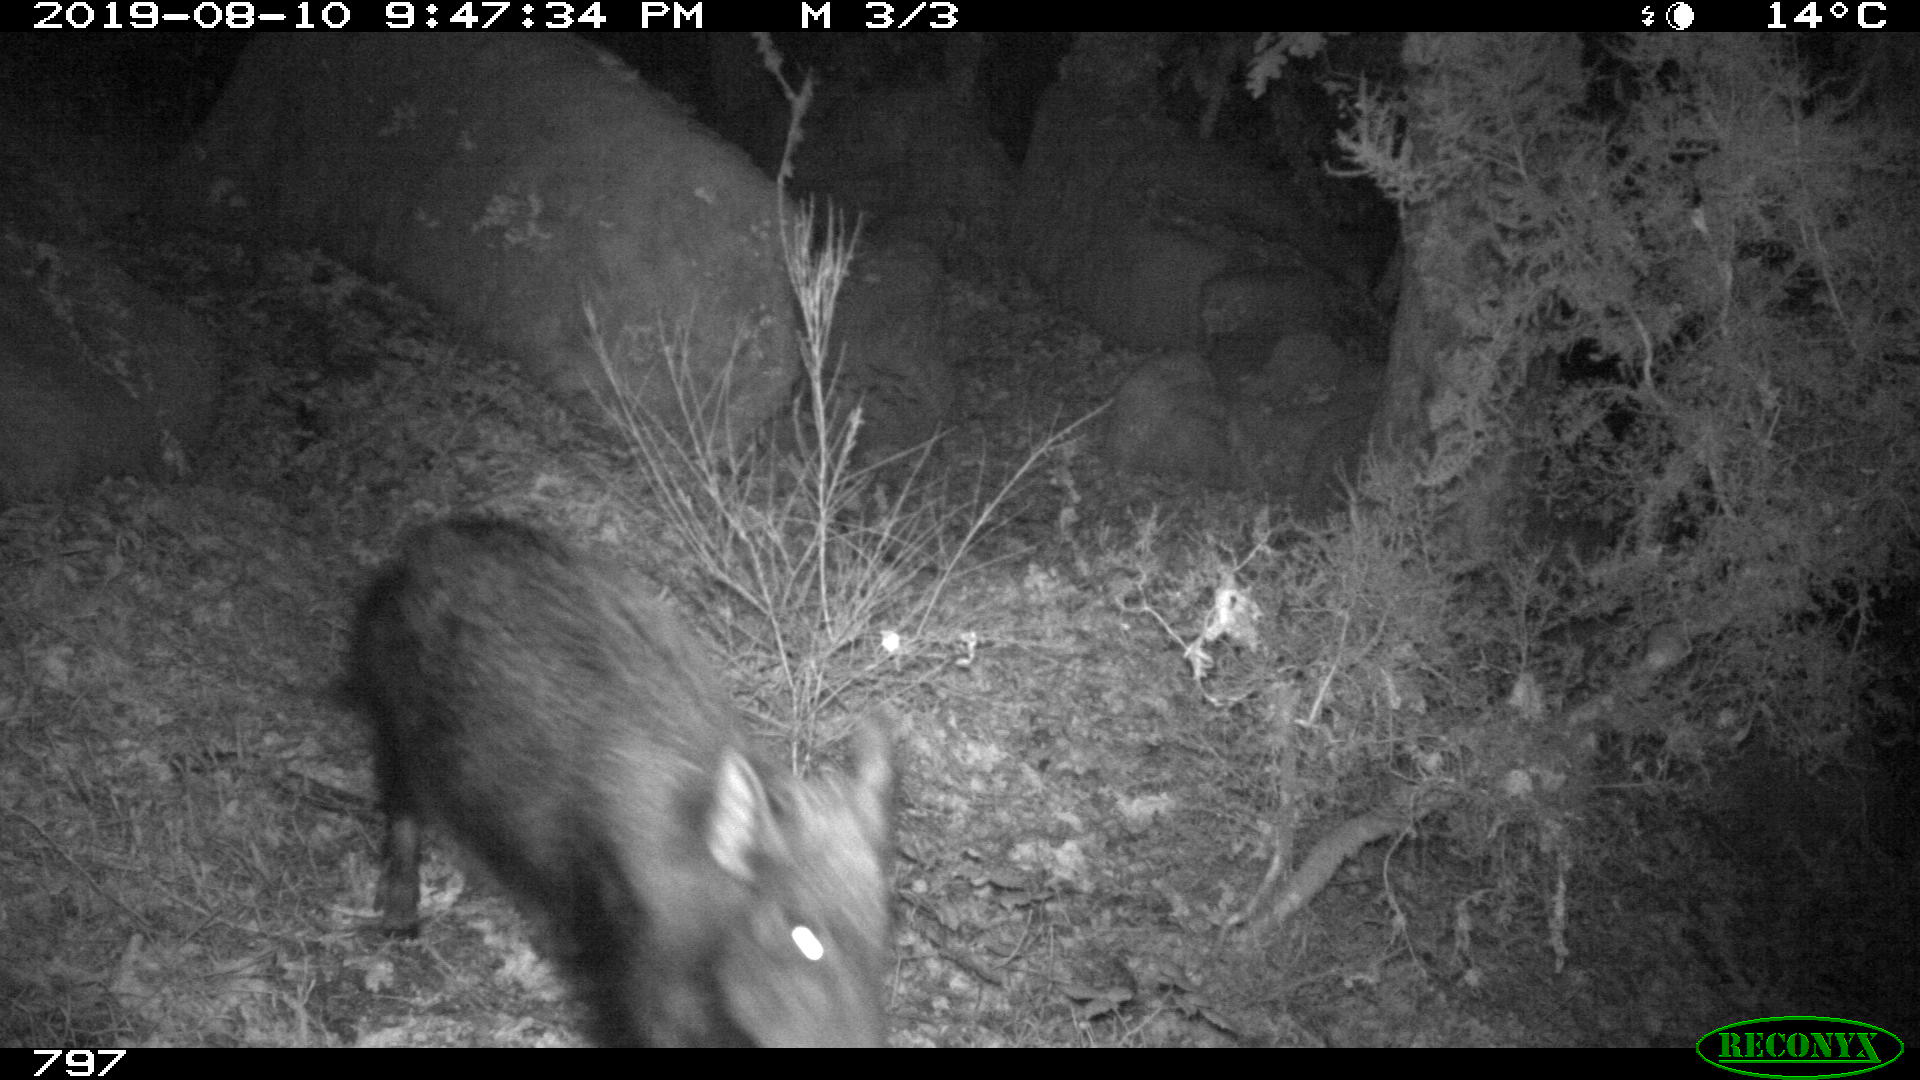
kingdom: Animalia
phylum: Chordata
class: Mammalia
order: Artiodactyla
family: Suidae
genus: Sus
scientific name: Sus scrofa
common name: Wild boar
